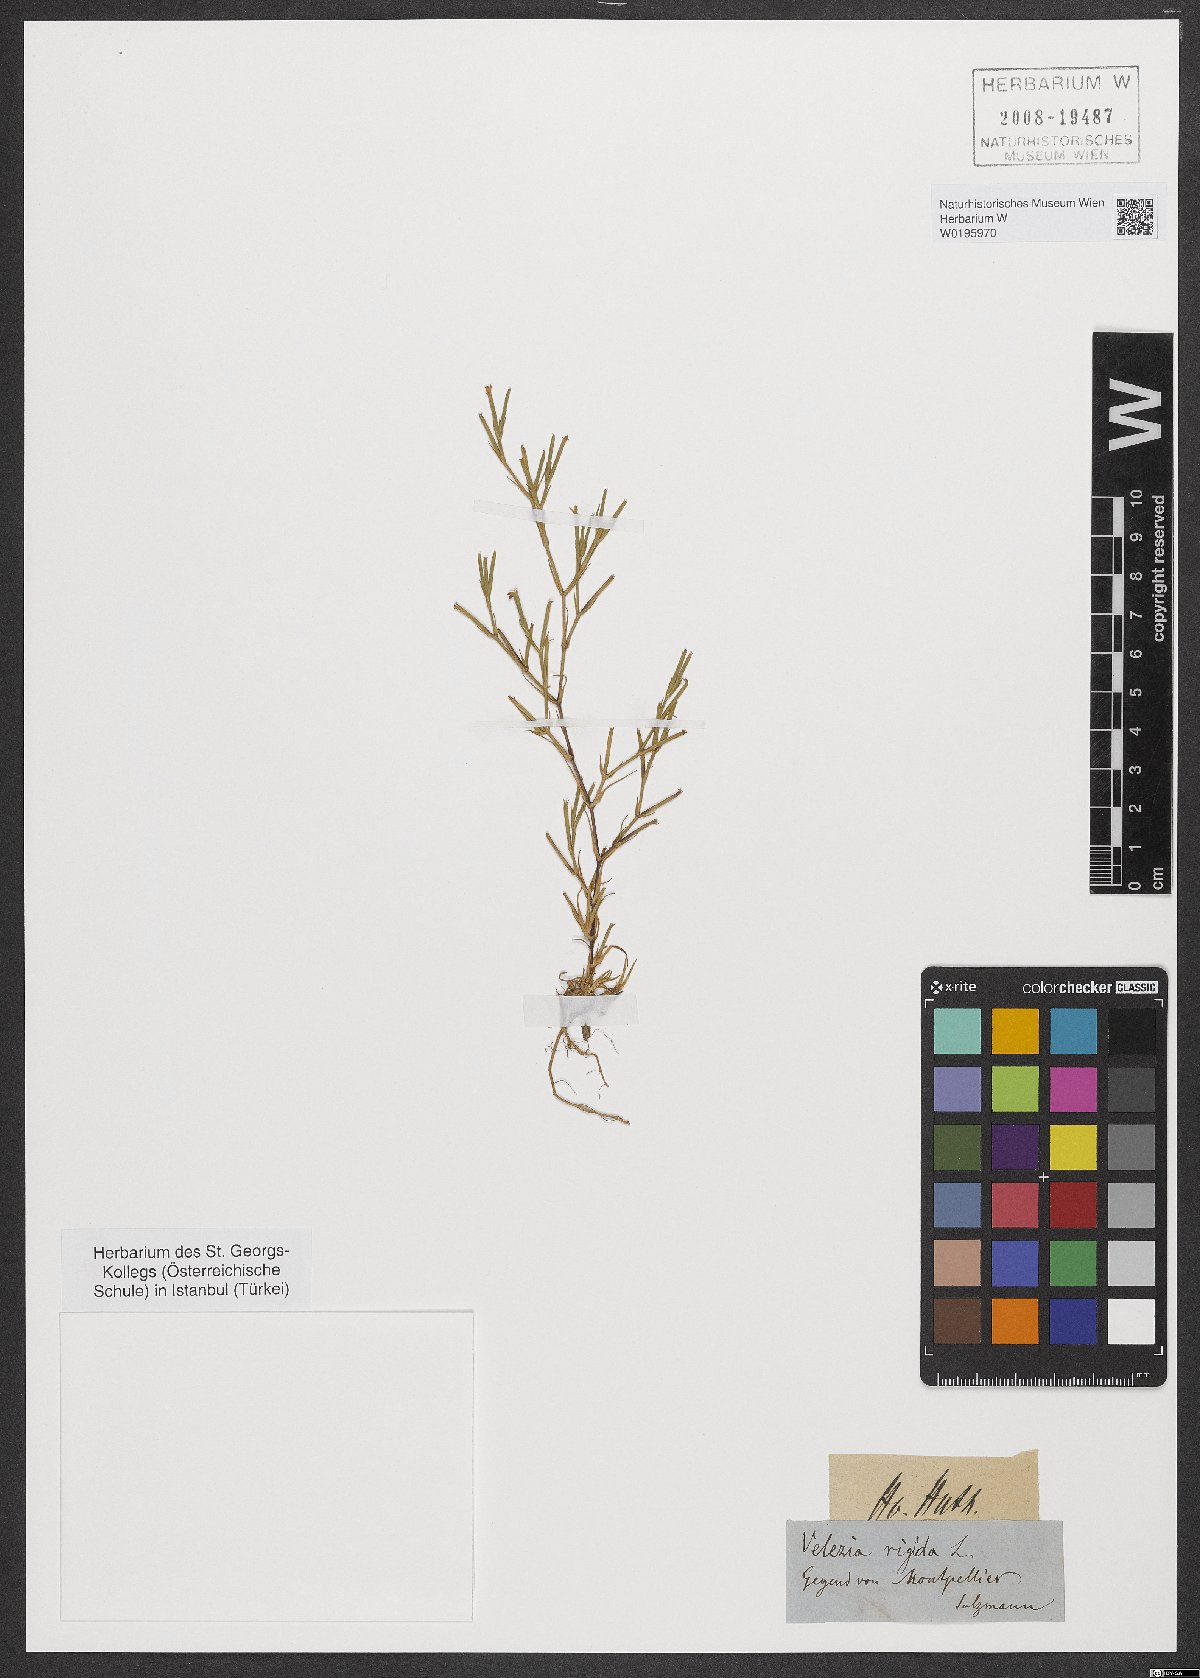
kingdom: Plantae
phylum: Tracheophyta
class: Magnoliopsida
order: Caryophyllales
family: Caryophyllaceae
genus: Dianthus
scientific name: Dianthus nudiflorus
